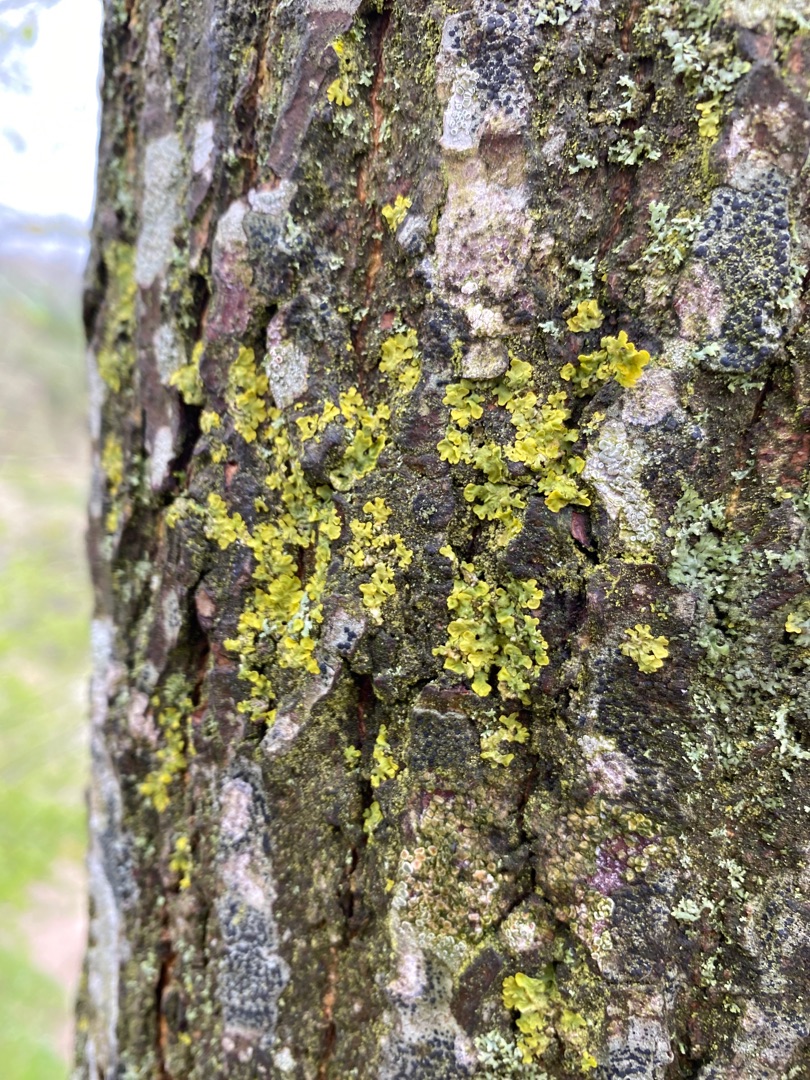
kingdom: Fungi
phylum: Ascomycota
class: Lecanoromycetes
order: Teloschistales
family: Teloschistaceae
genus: Xanthoria
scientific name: Xanthoria parietina
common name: Almindelig væggelav
